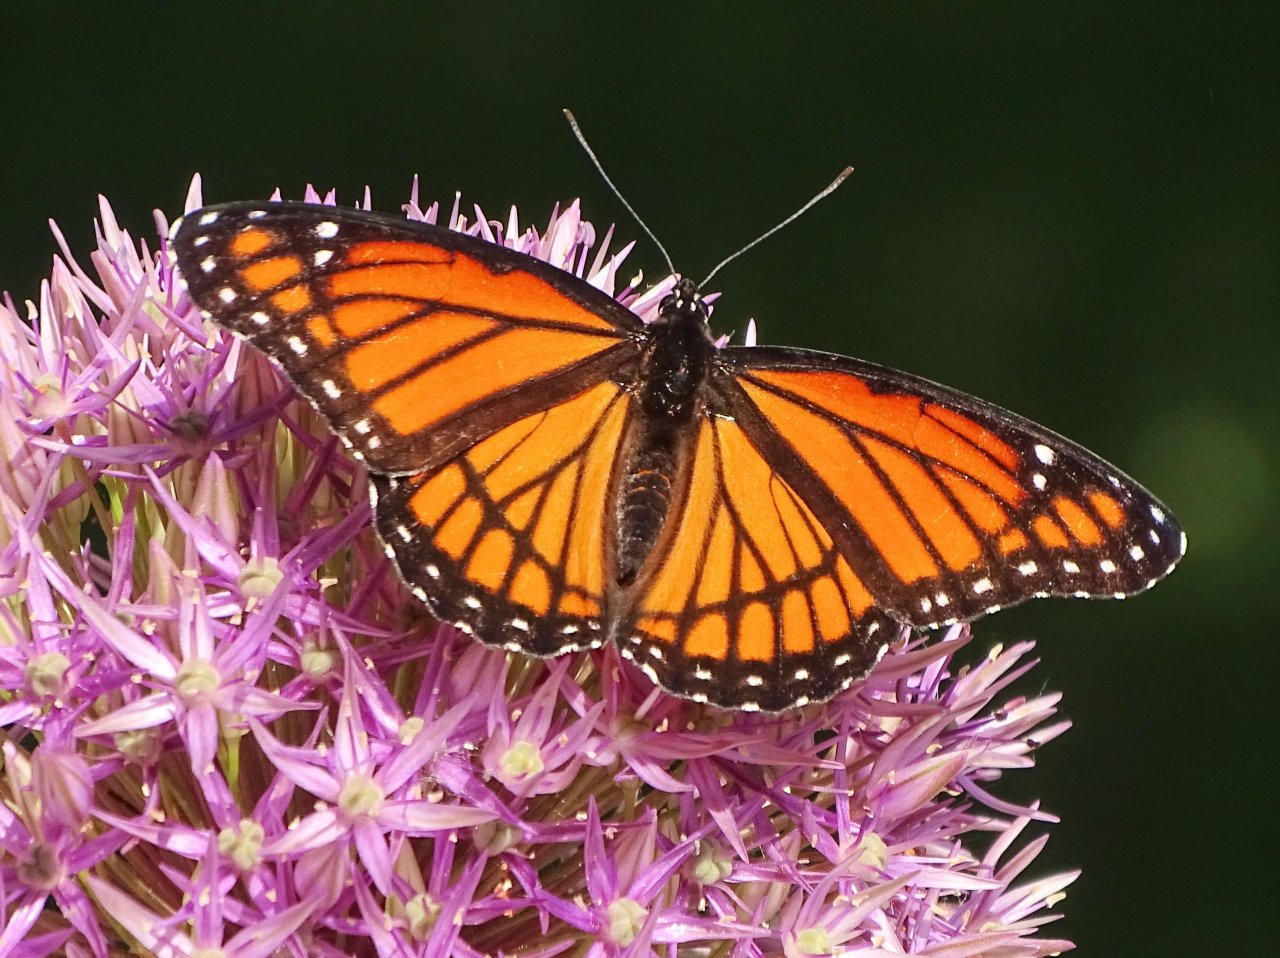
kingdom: Animalia
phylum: Arthropoda
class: Insecta
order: Lepidoptera
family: Nymphalidae
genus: Limenitis
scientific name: Limenitis archippus
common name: Viceroy
